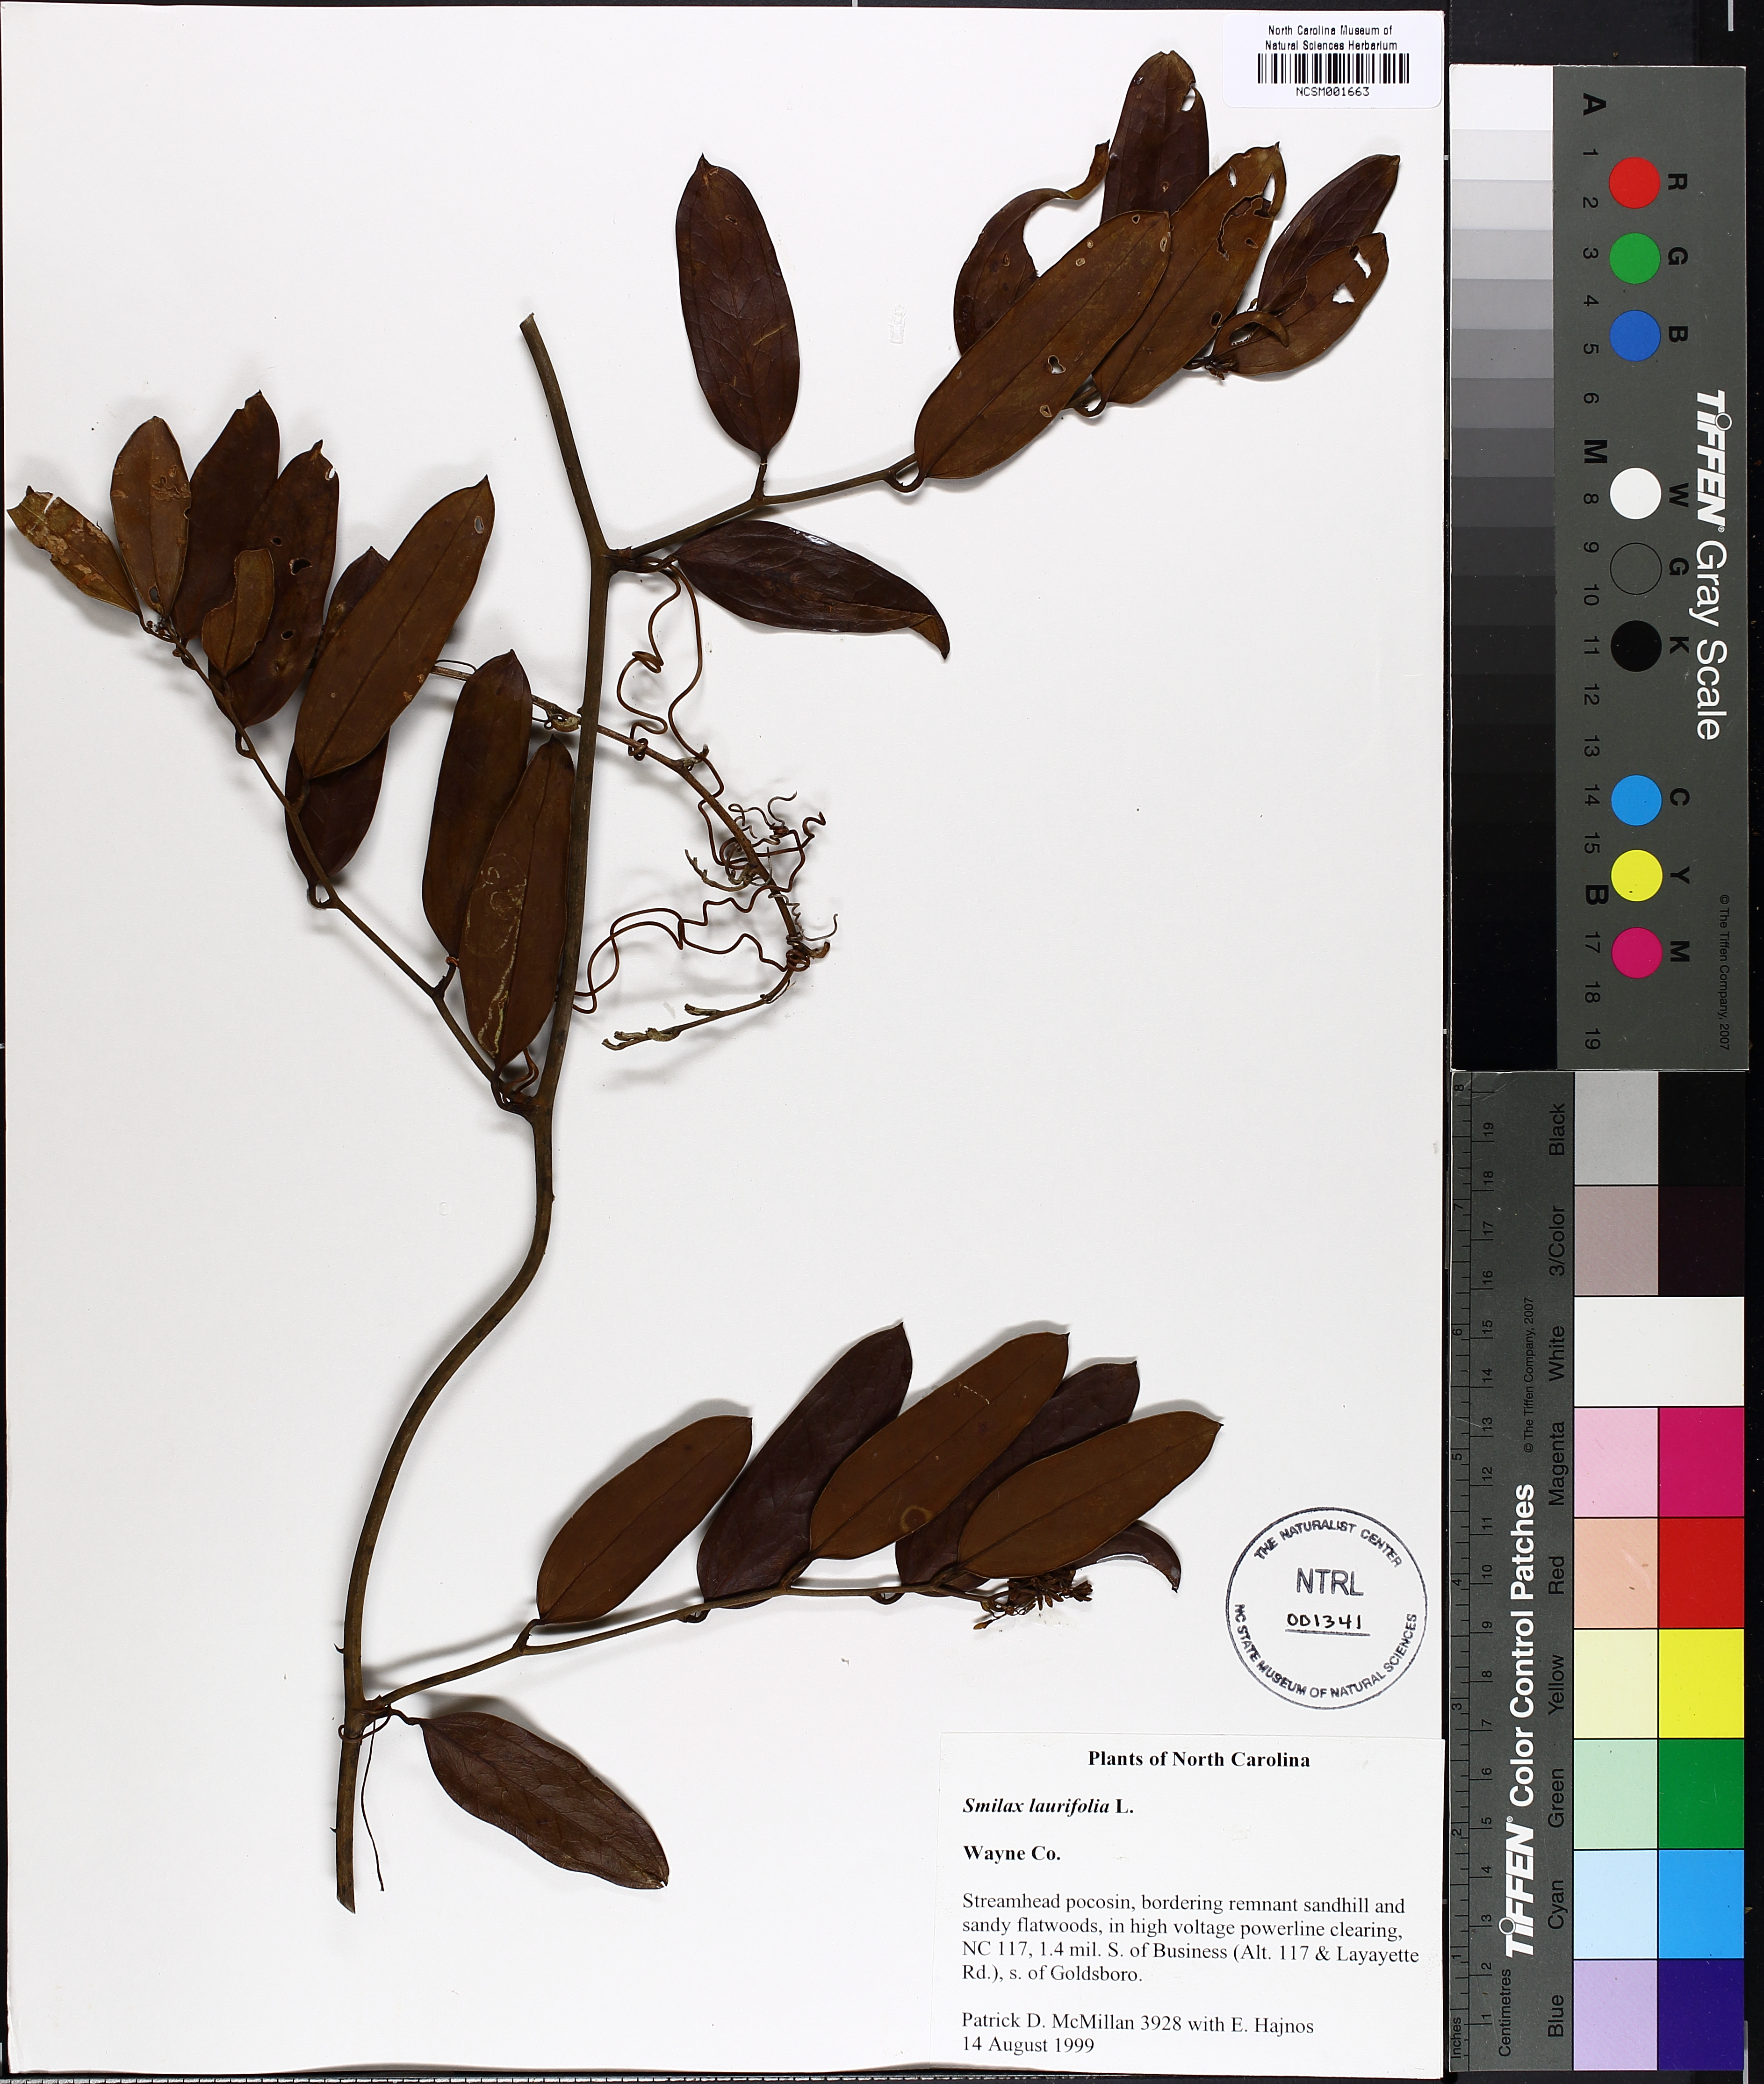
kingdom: Plantae
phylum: Tracheophyta
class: Liliopsida
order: Liliales
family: Smilacaceae
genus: Smilax
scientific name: Smilax laurifolia
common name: Bamboovine
